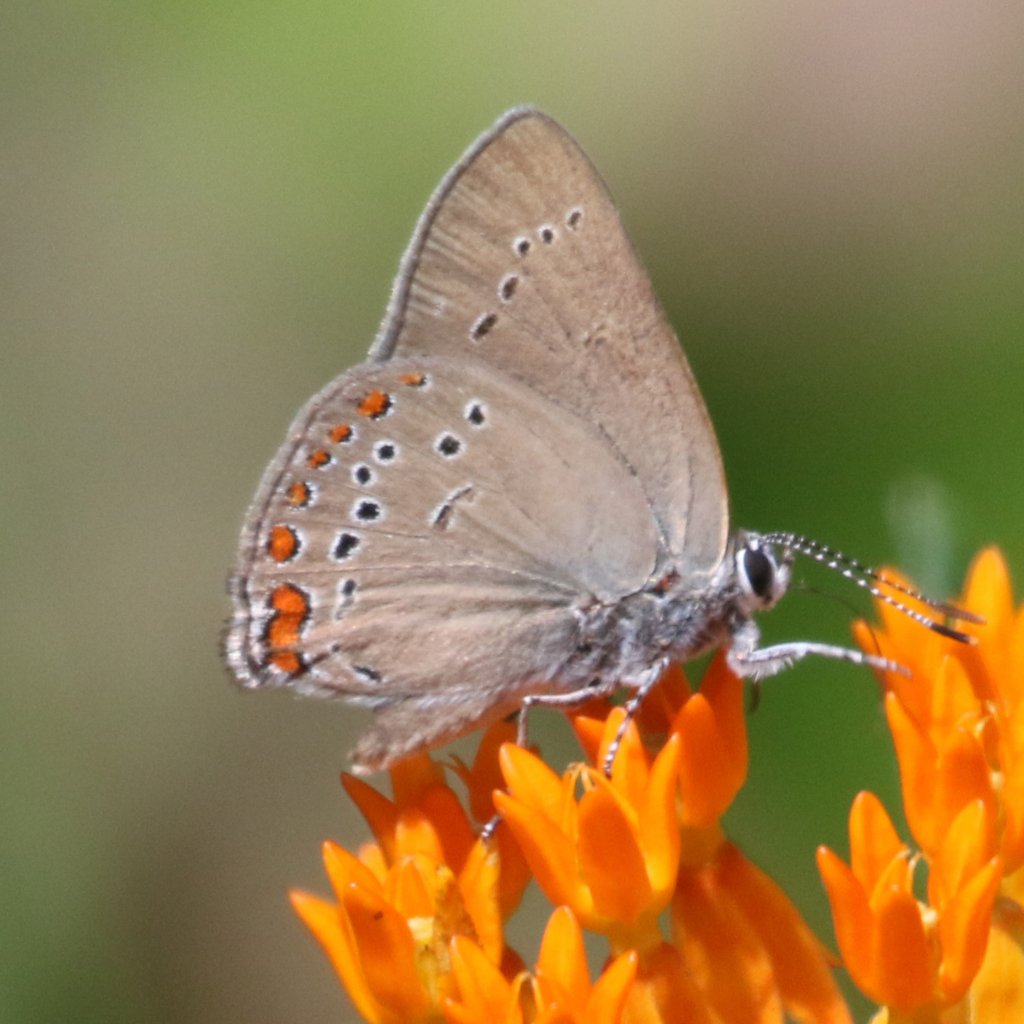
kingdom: Animalia
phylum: Arthropoda
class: Insecta
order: Lepidoptera
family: Lycaenidae
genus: Harkenclenus
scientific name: Harkenclenus titus
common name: Coral Hairstreak
